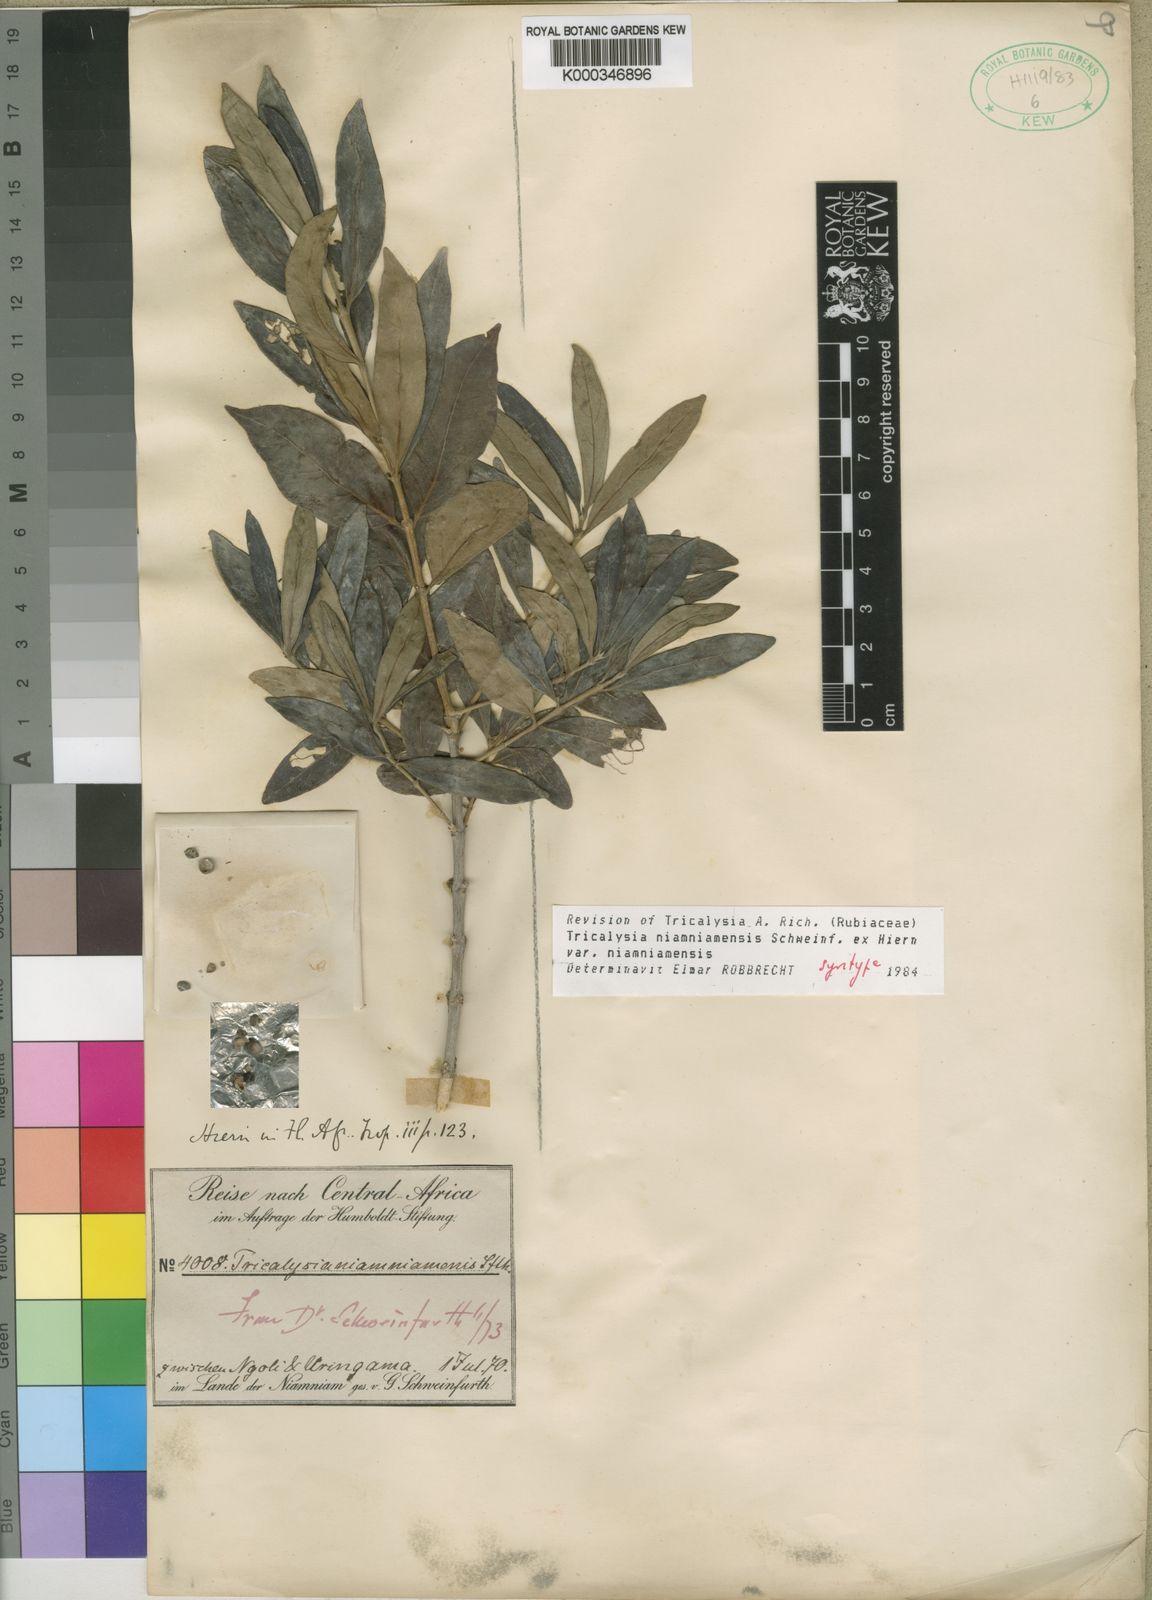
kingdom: Plantae
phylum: Tracheophyta
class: Magnoliopsida
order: Gentianales
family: Rubiaceae
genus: Tricalysia
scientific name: Tricalysia niamniamensis
